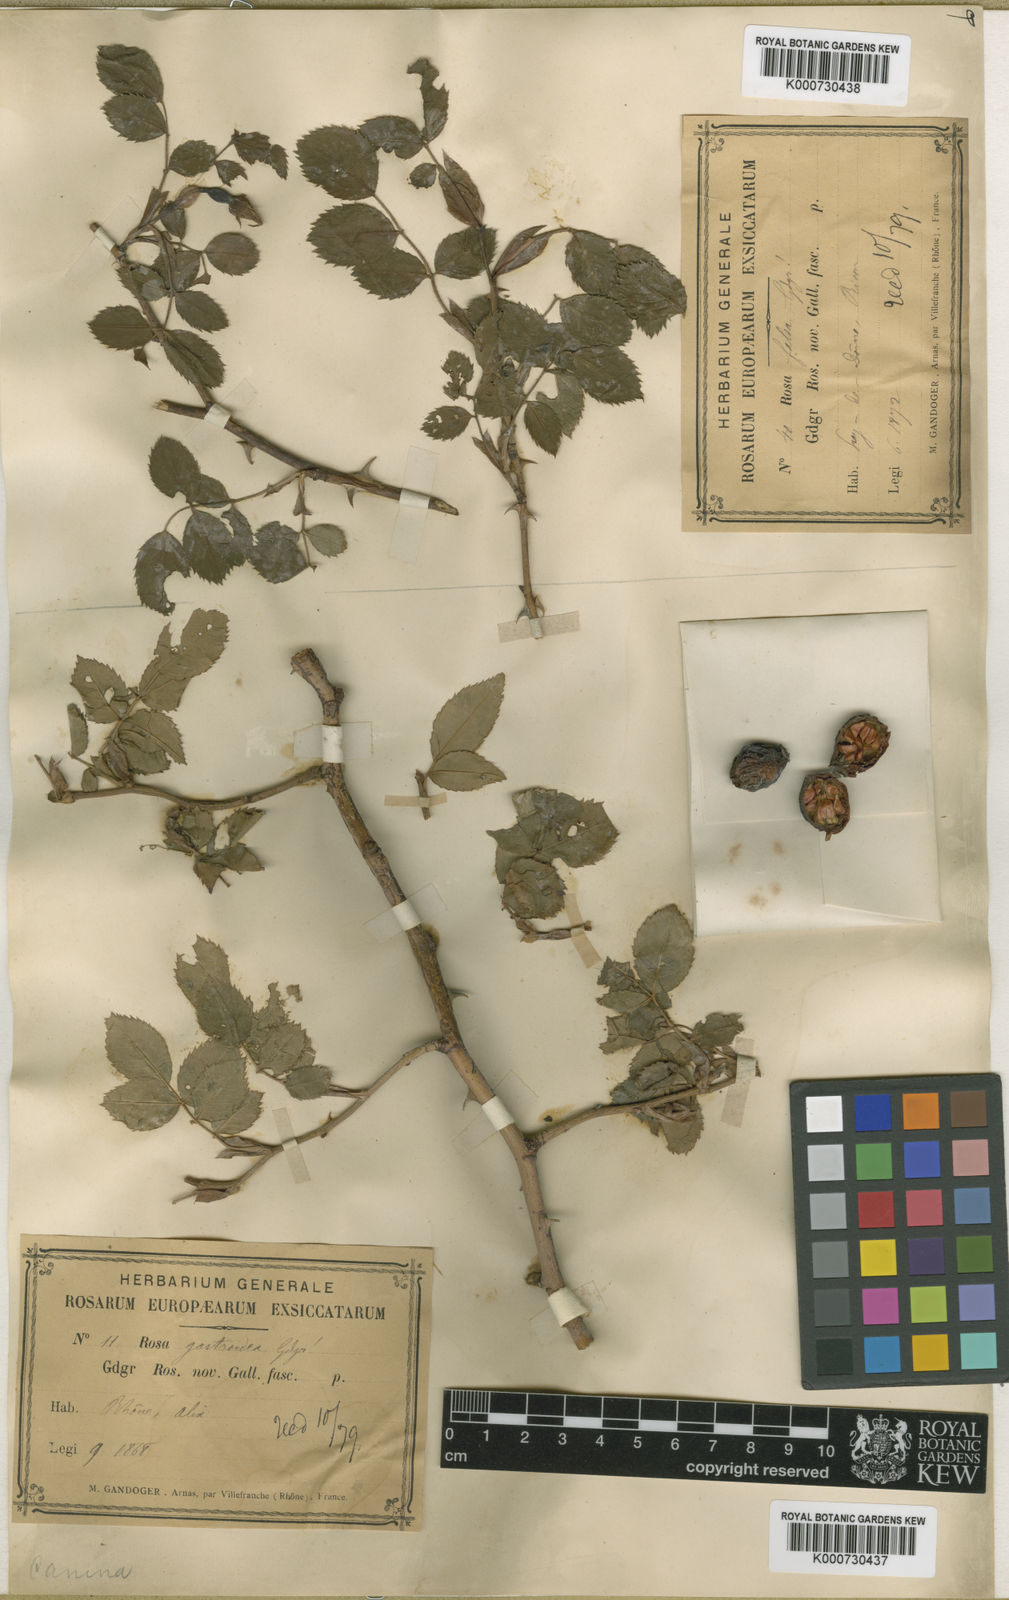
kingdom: Plantae
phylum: Tracheophyta
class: Magnoliopsida
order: Rosales
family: Rosaceae
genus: Rosa
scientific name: Rosa canina
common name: Dog rose
